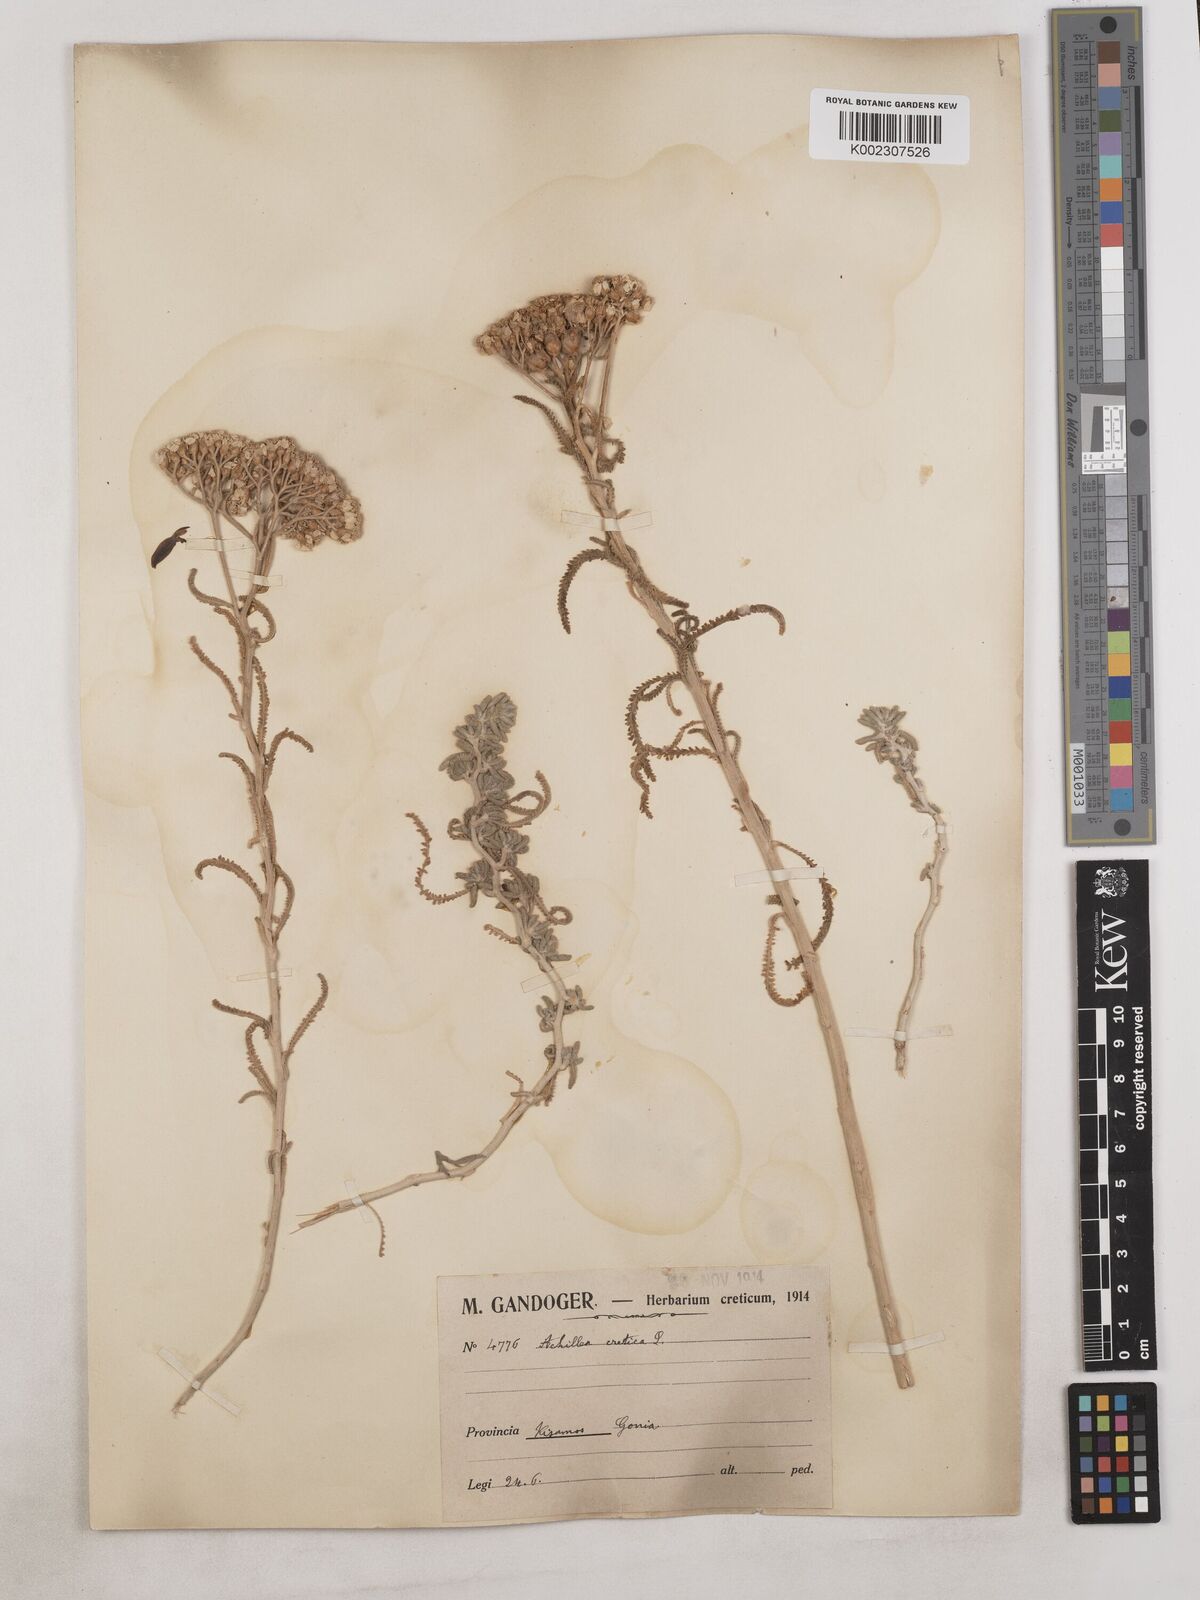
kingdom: Plantae
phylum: Tracheophyta
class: Magnoliopsida
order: Asterales
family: Asteraceae
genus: Achillea
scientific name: Achillea cretica
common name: Chamomile-leaved lavender-cotton
